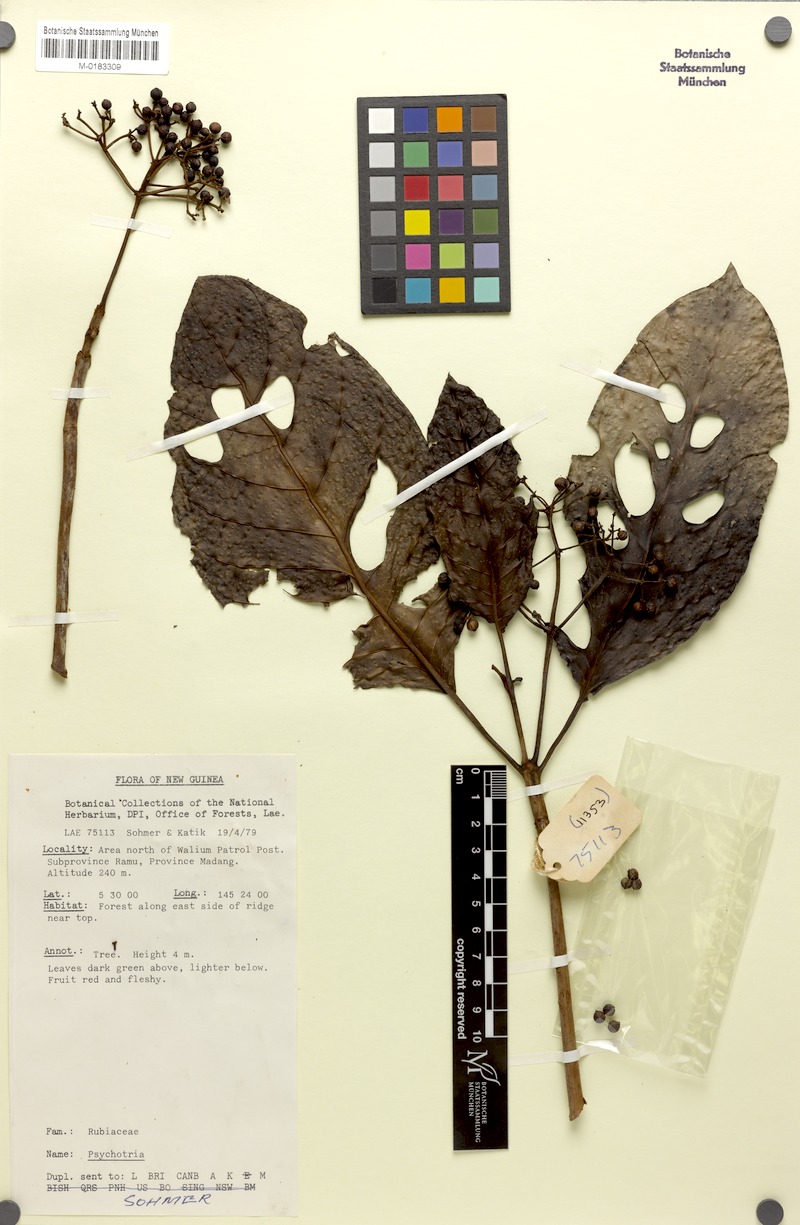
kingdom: Plantae
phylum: Tracheophyta
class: Magnoliopsida
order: Gentianales
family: Rubiaceae
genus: Psychotria
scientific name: Psychotria ramuensis
